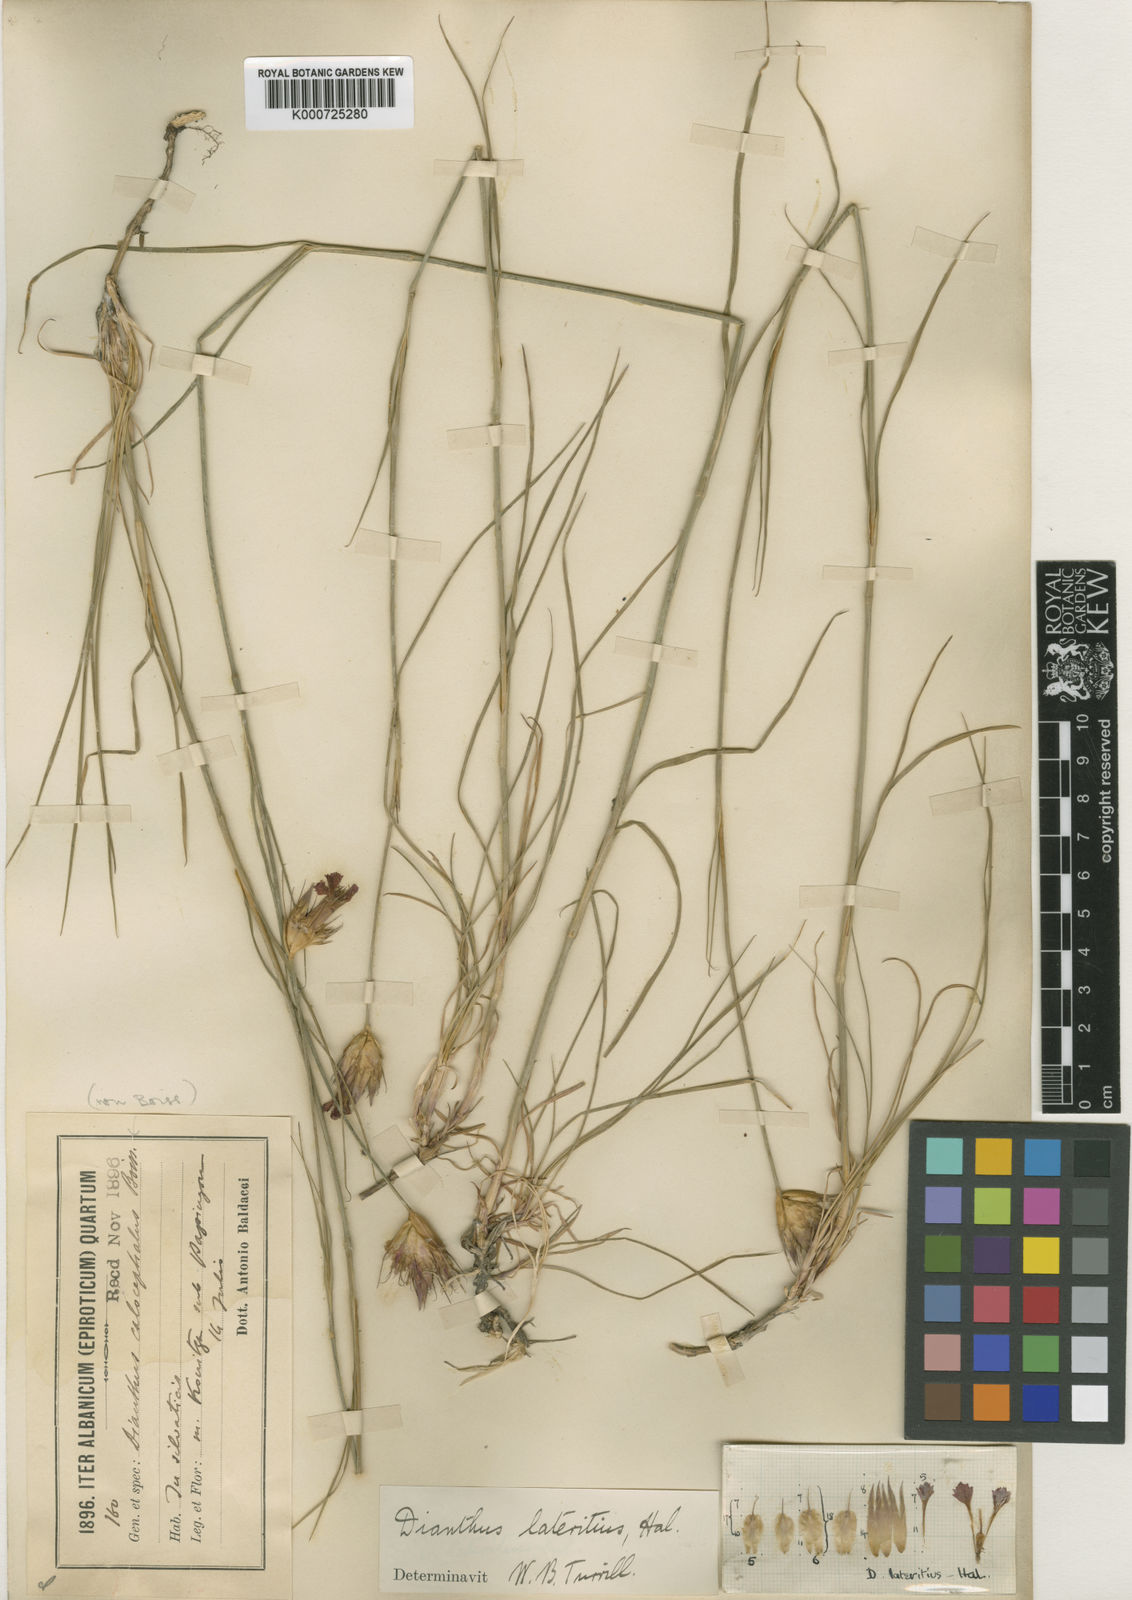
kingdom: Plantae
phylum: Tracheophyta
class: Magnoliopsida
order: Caryophyllales
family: Caryophyllaceae
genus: Dianthus
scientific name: Dianthus
